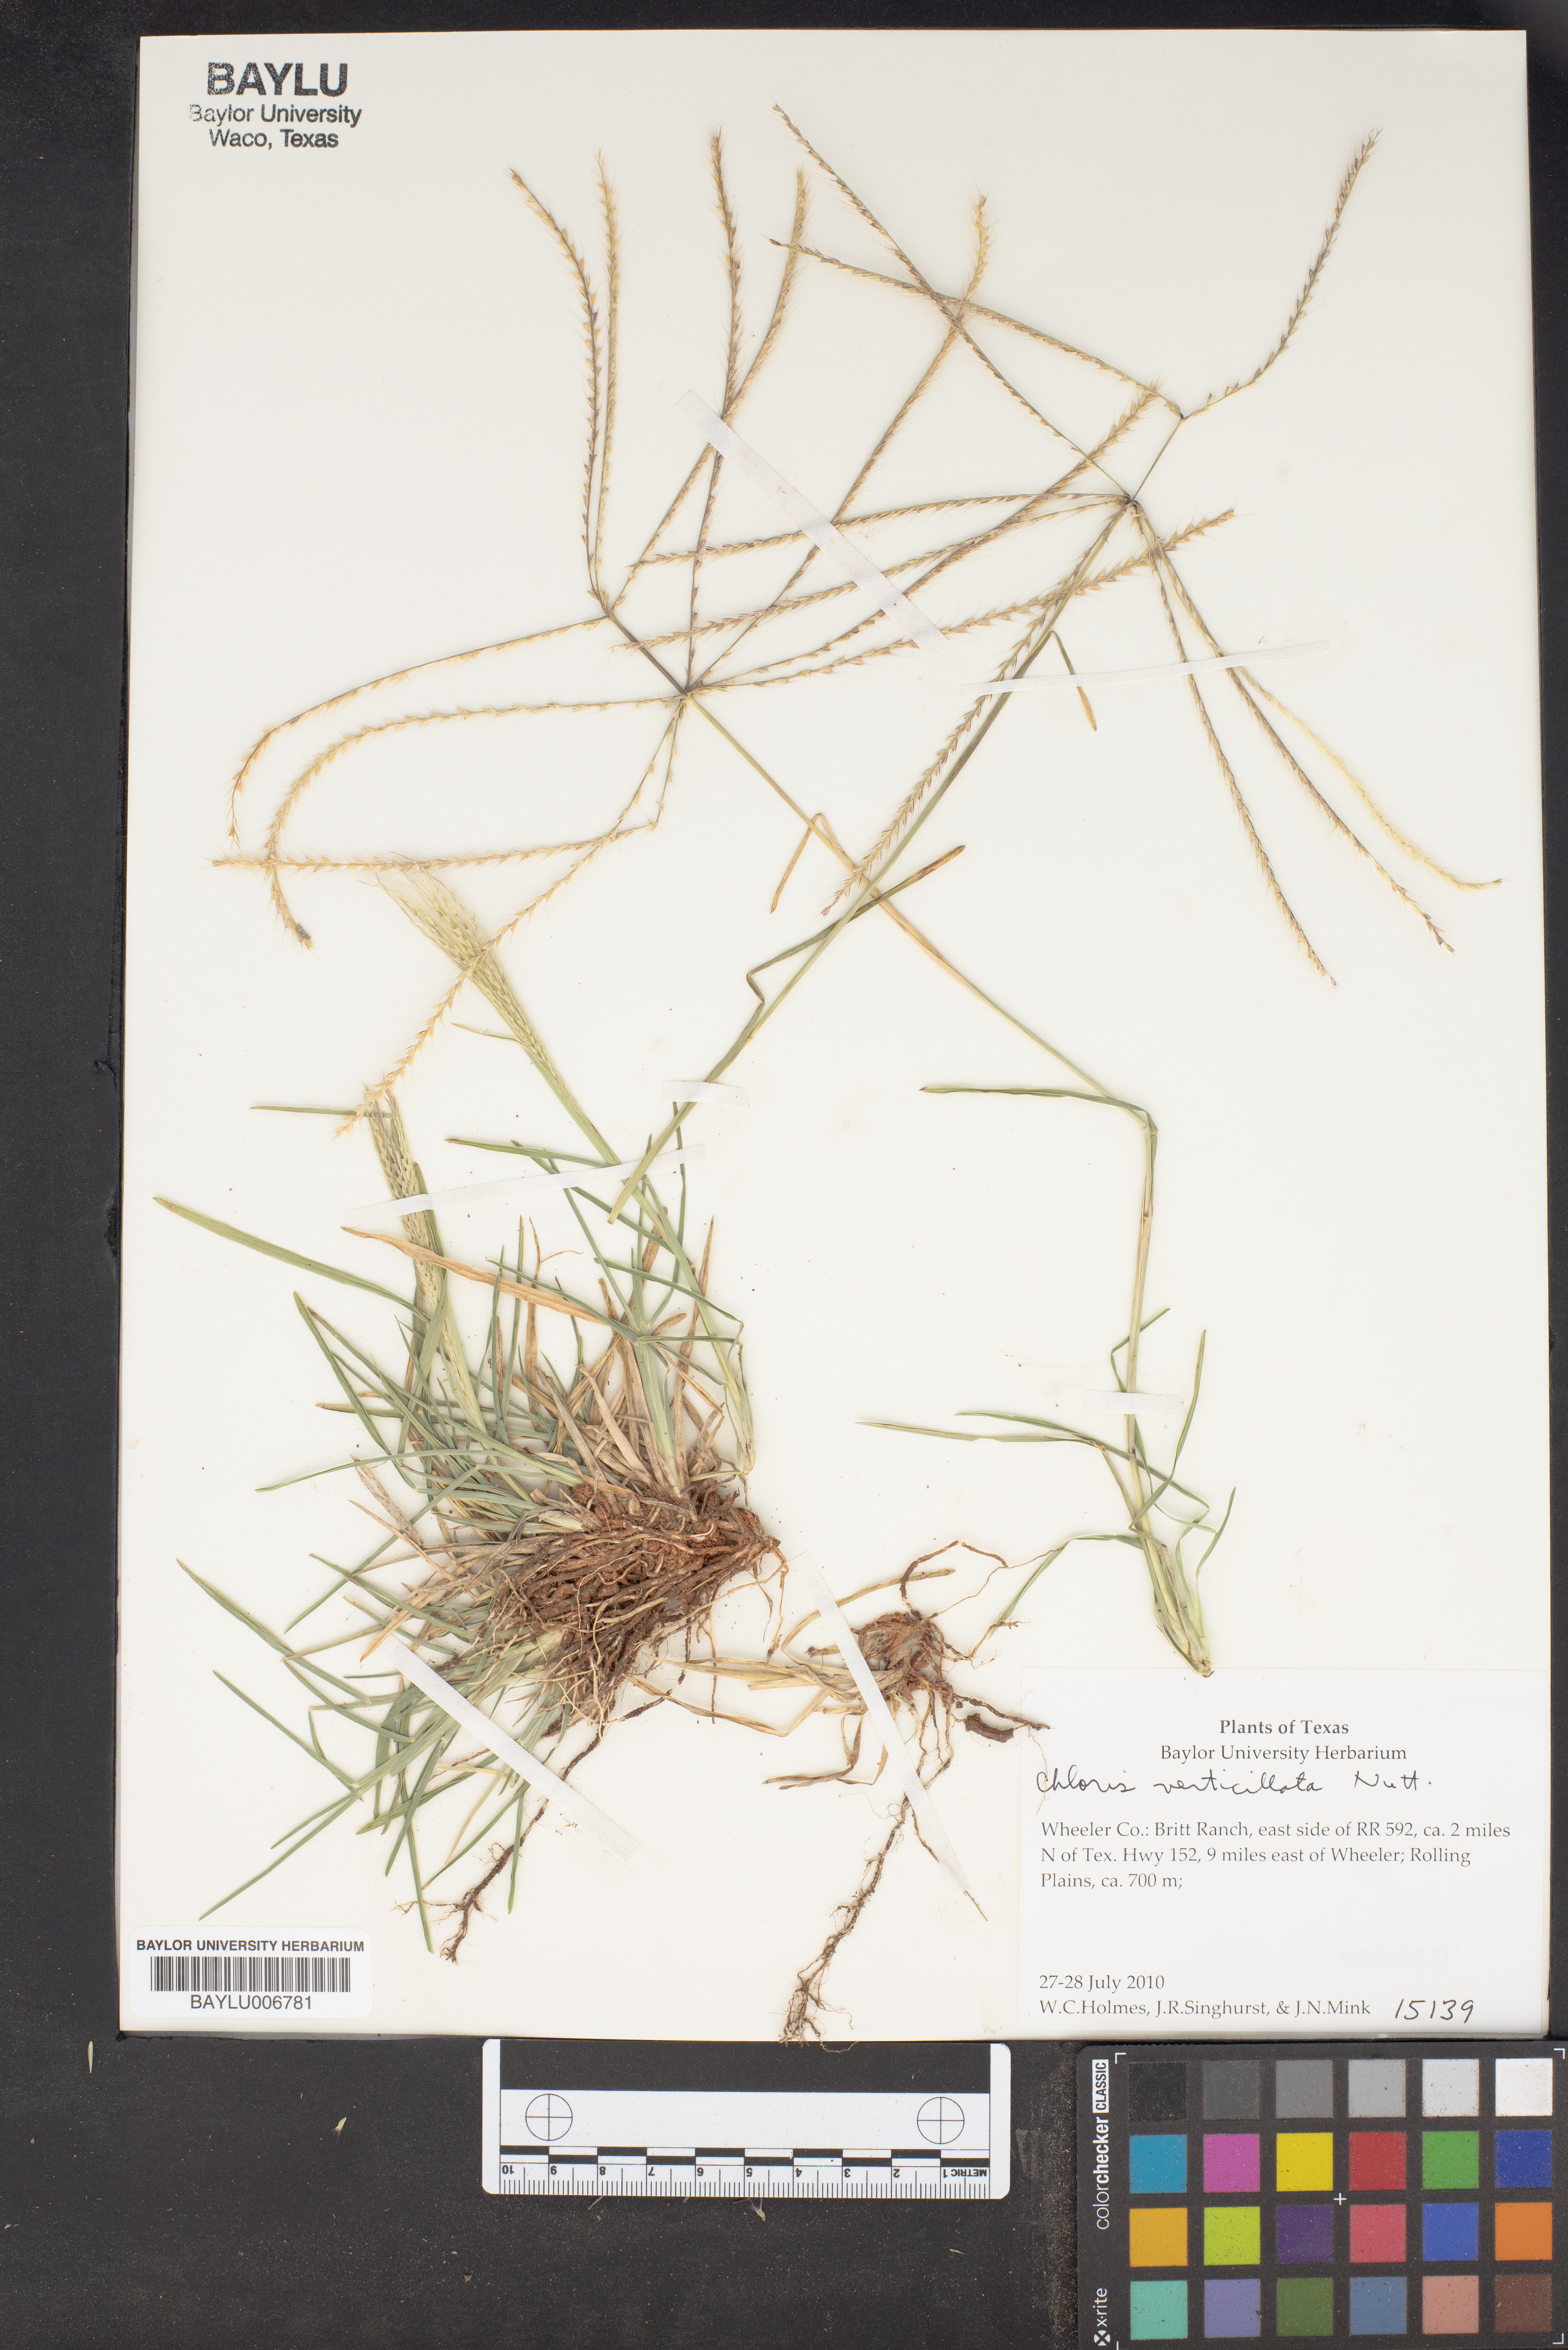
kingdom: Plantae
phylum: Tracheophyta
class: Liliopsida
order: Poales
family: Poaceae
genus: Chloris
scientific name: Chloris verticillata
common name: Tumble windmill grass
